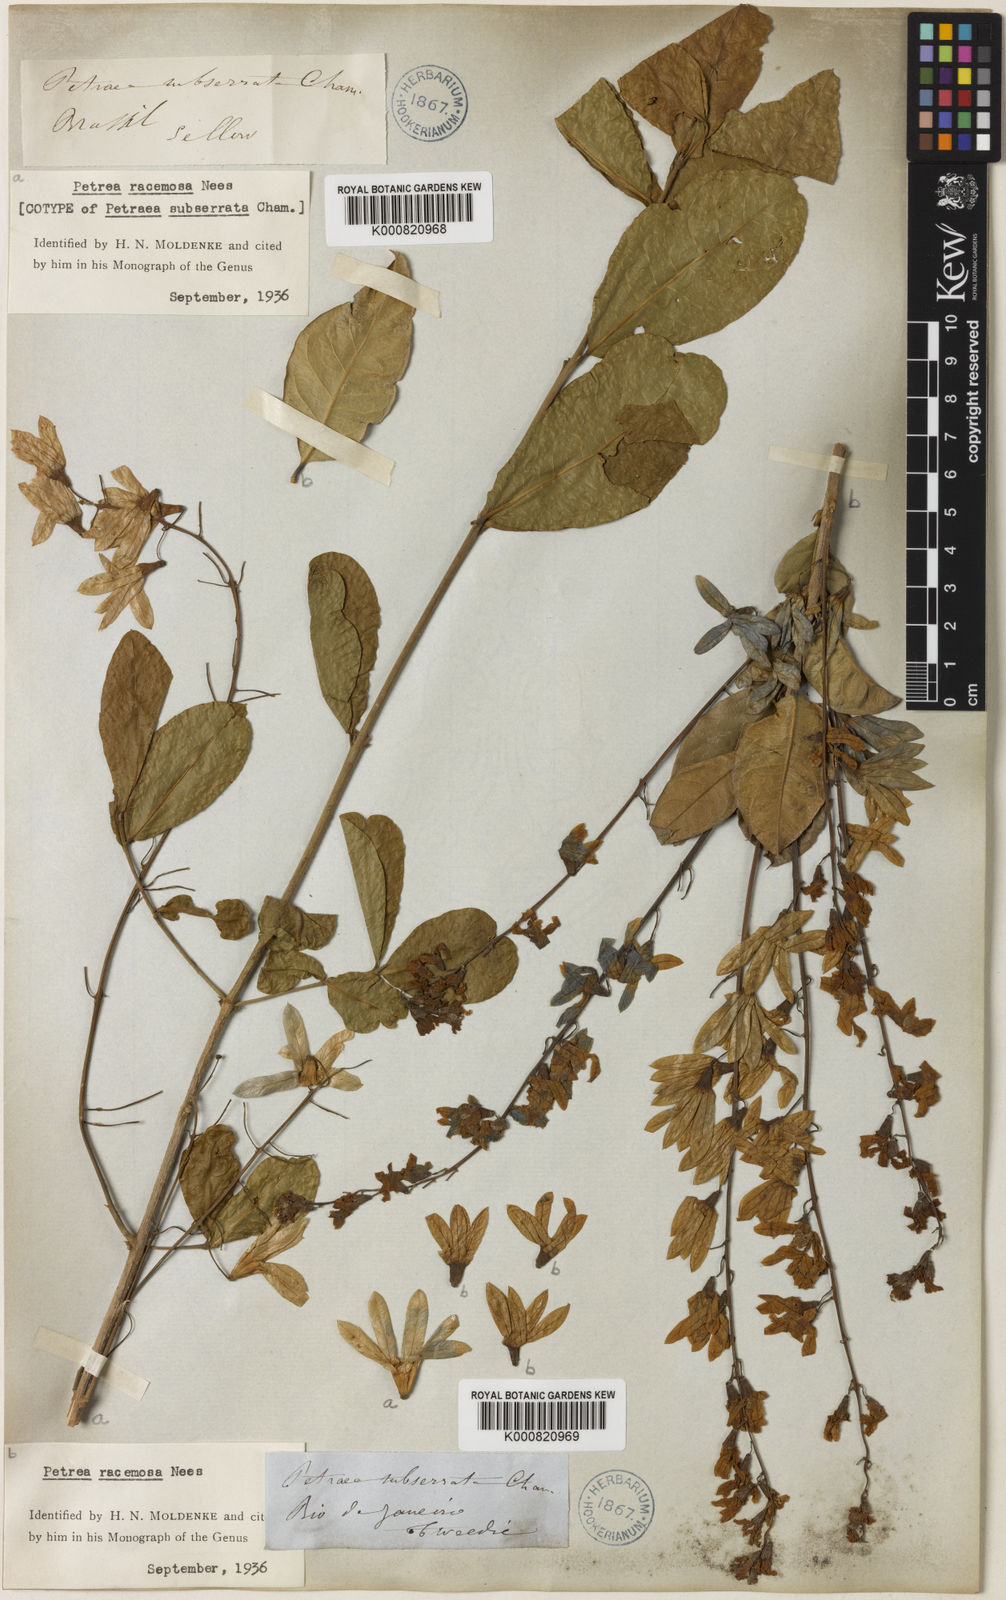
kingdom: Plantae
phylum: Tracheophyta
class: Magnoliopsida
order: Lamiales
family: Verbenaceae
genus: Petrea
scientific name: Petrea volubilis
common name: Queen's-wreath
